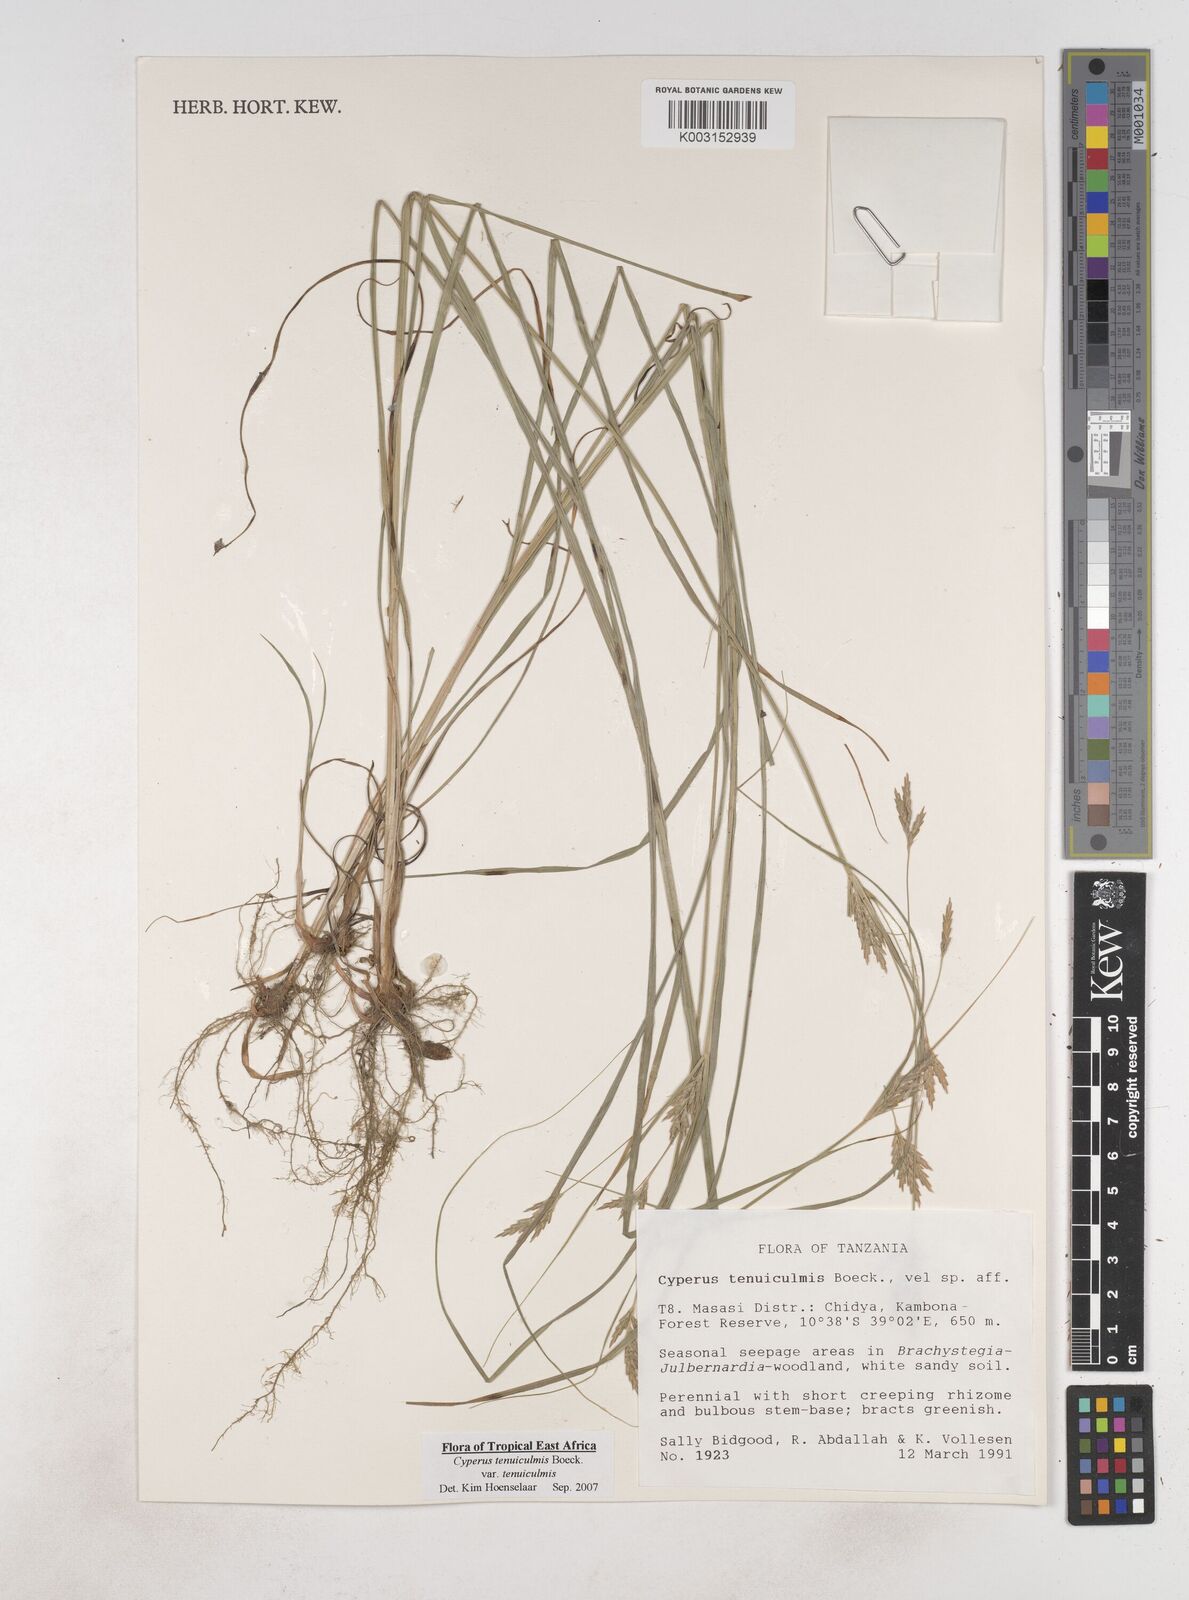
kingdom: Plantae
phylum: Tracheophyta
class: Liliopsida
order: Poales
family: Cyperaceae
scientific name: Cyperaceae
